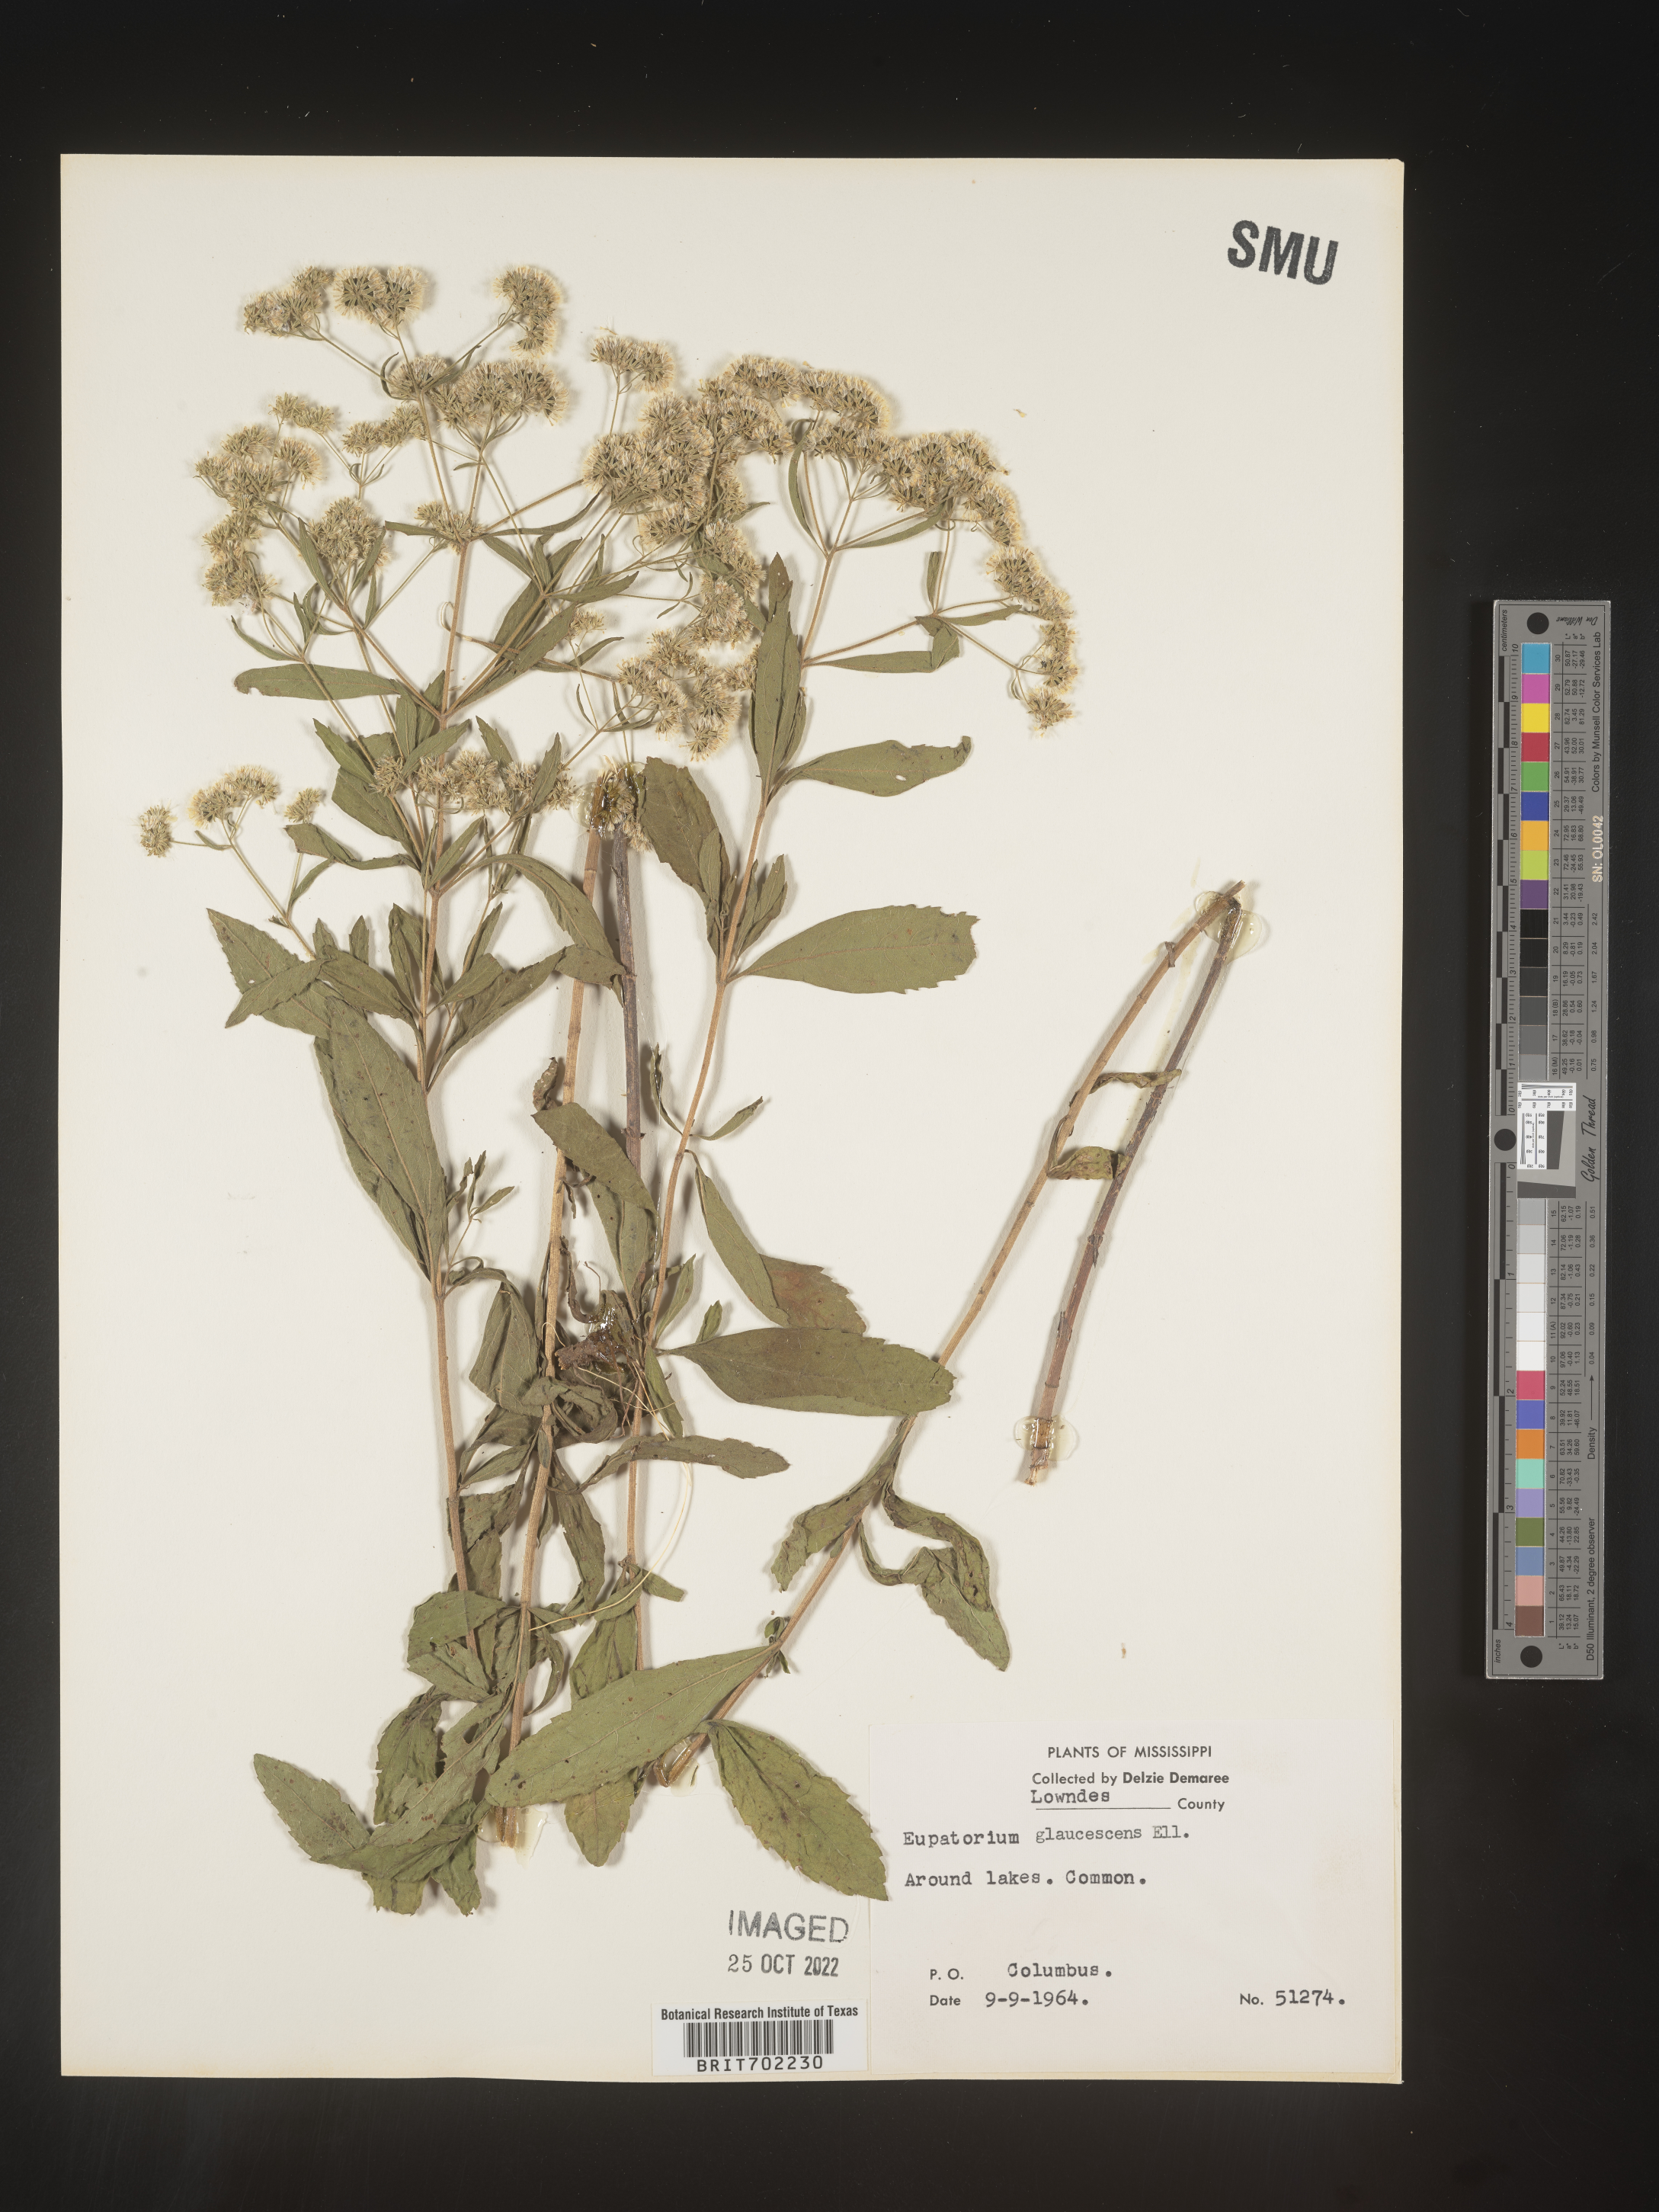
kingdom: Plantae
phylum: Tracheophyta
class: Magnoliopsida
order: Asterales
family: Asteraceae
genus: Eupatorium
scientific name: Eupatorium linearifolium
